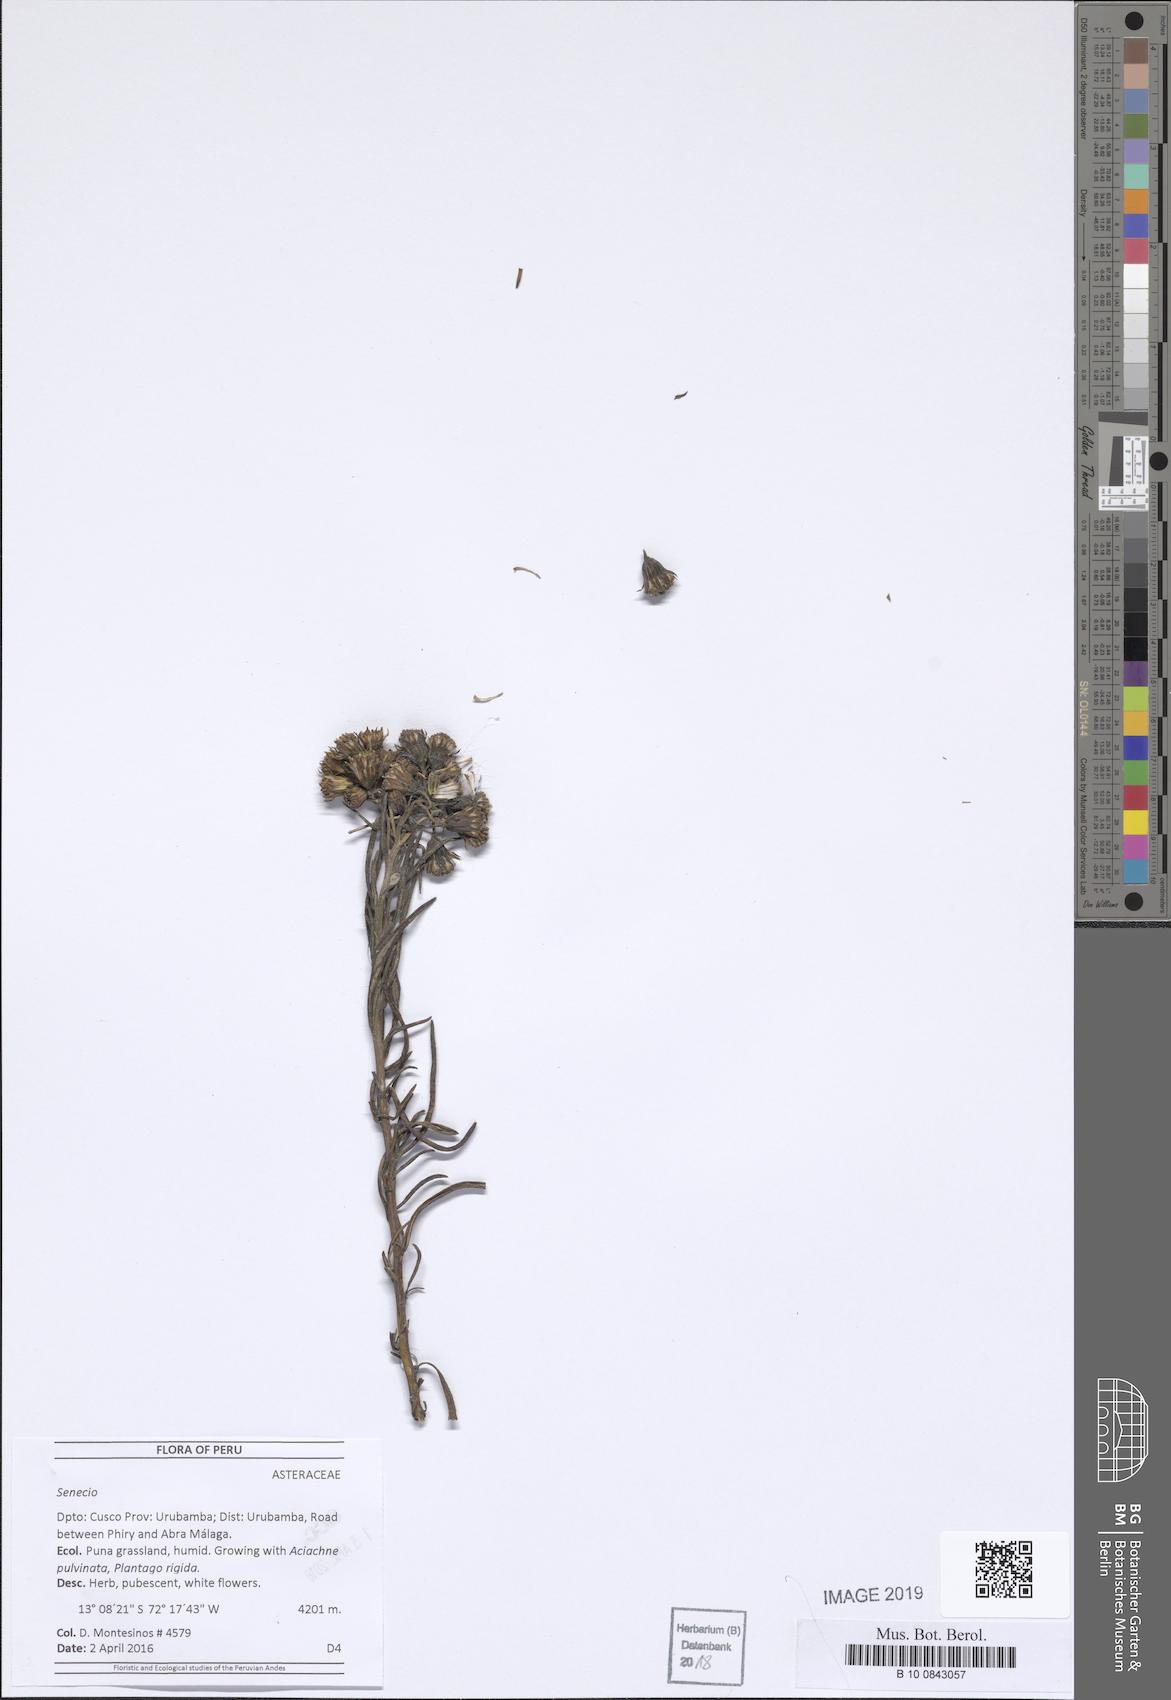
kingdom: Plantae
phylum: Tracheophyta
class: Magnoliopsida
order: Asterales
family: Asteraceae
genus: Senecio
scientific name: Senecio mathewsii
